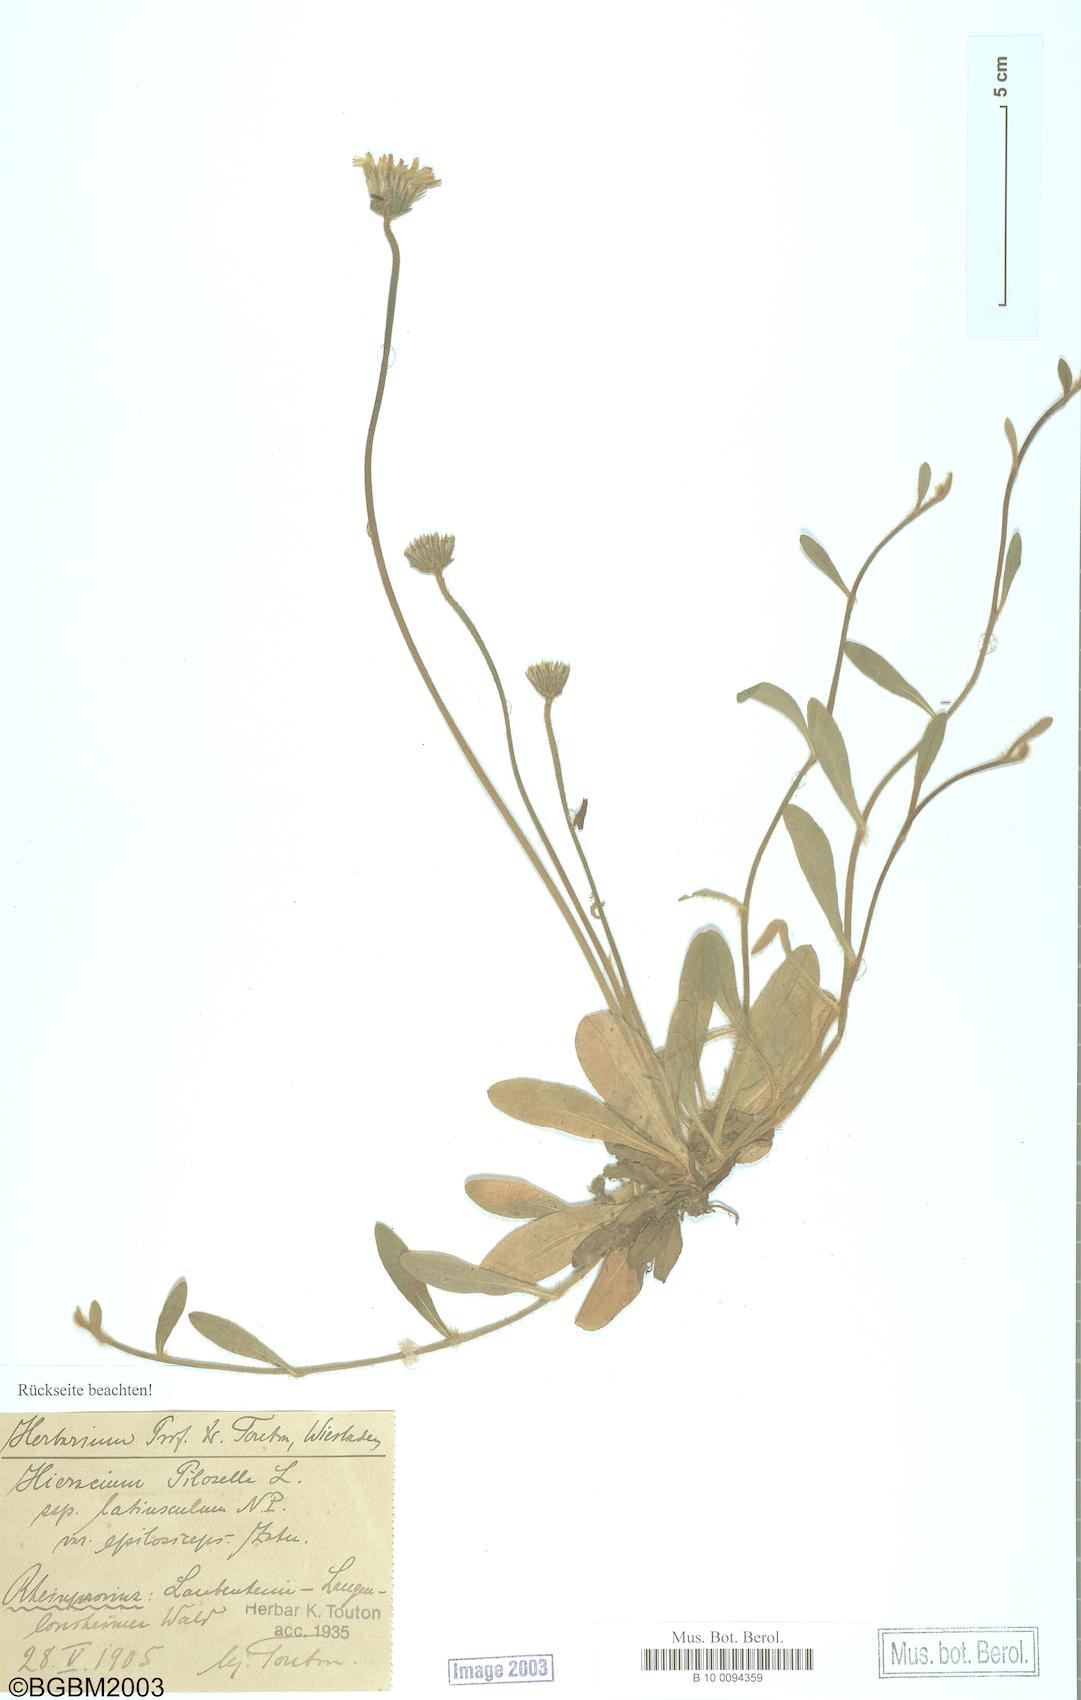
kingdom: Plantae
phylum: Tracheophyta
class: Magnoliopsida
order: Asterales
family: Asteraceae
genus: Pilosella
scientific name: Pilosella officinarum
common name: Mouse-ear hawkweed
